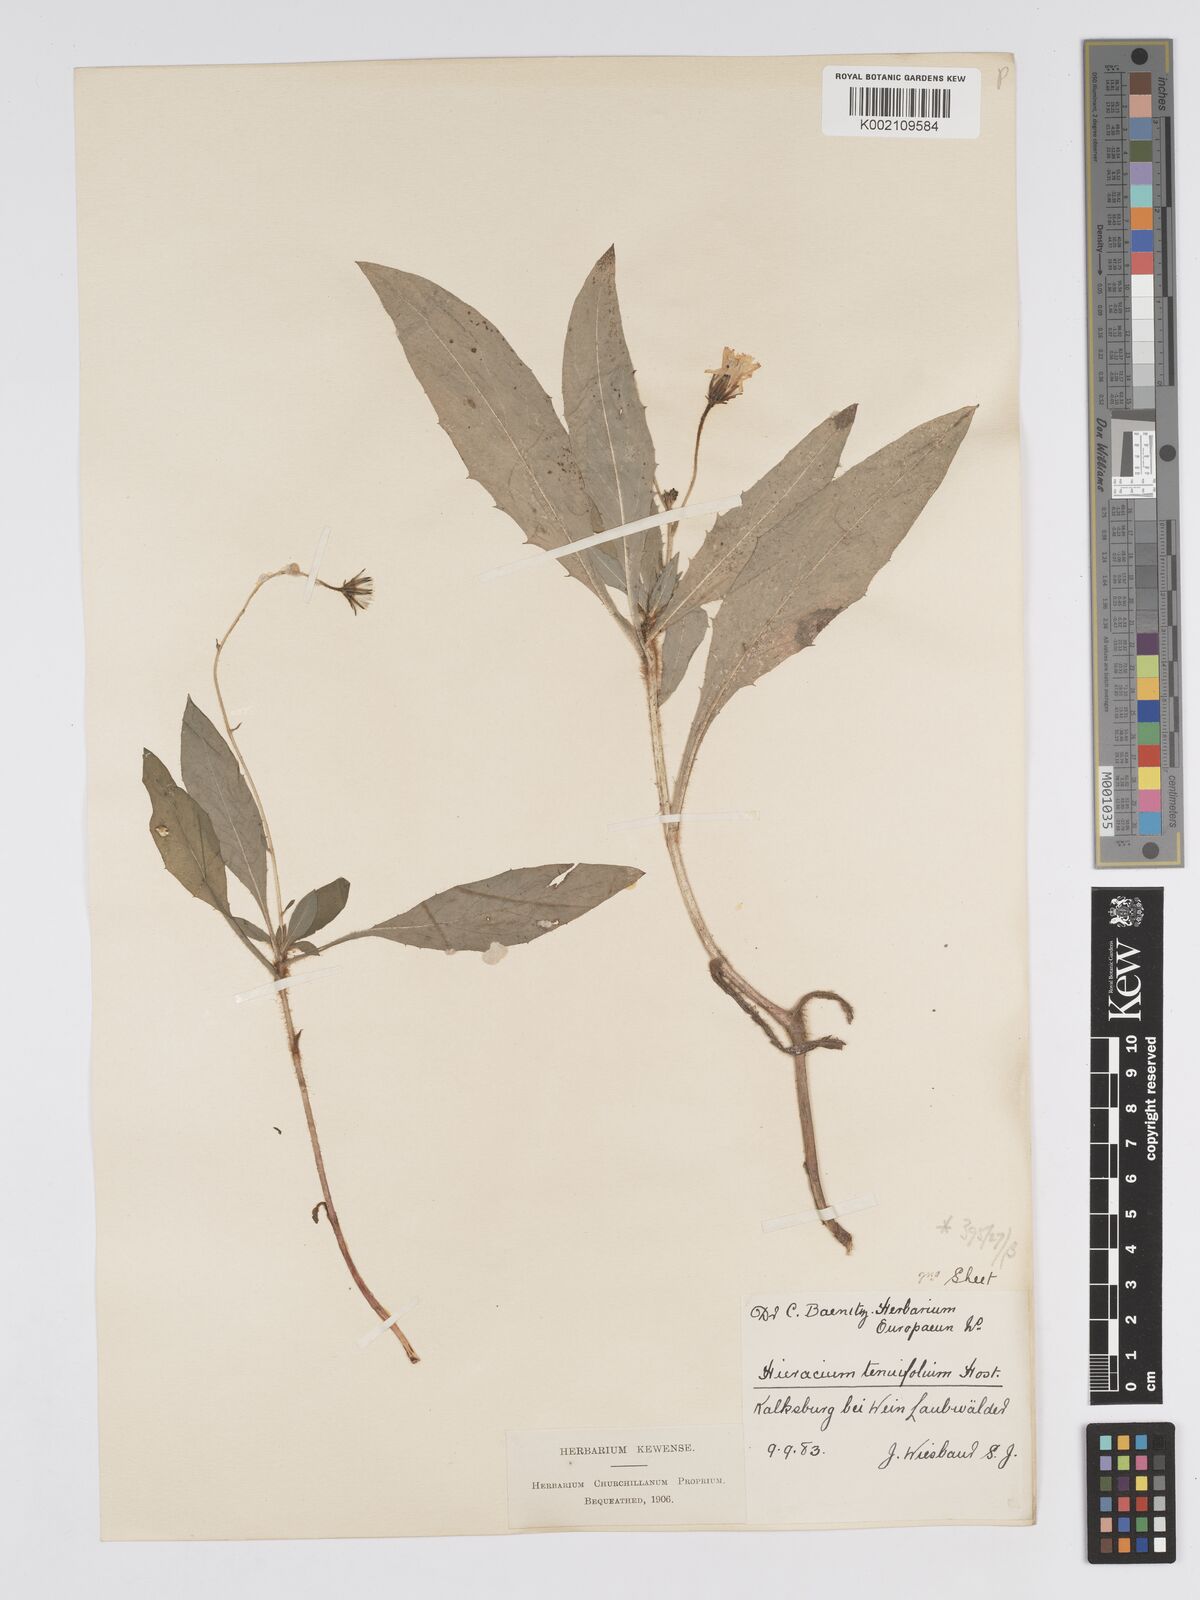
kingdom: Plantae
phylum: Tracheophyta
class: Magnoliopsida
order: Asterales
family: Asteraceae
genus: Hieracium
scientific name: Hieracium racemosum
